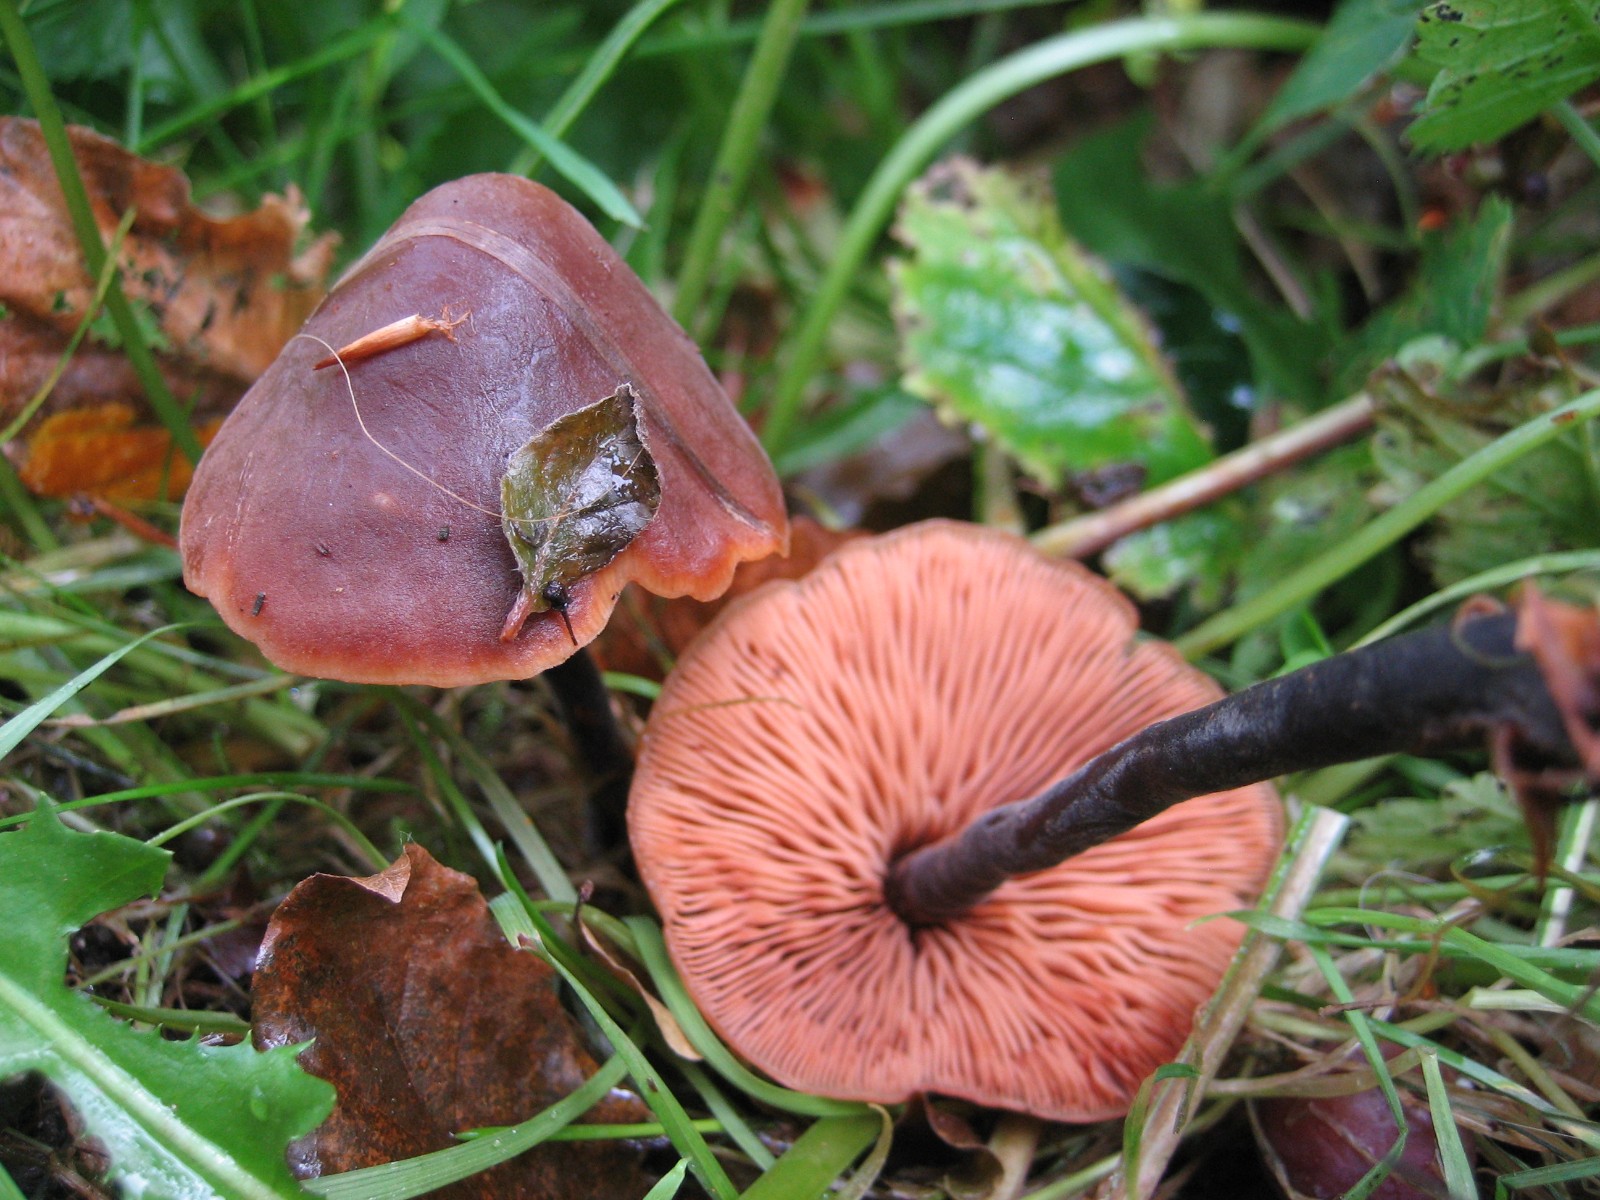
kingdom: Fungi
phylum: Basidiomycota
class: Agaricomycetes
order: Agaricales
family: Macrocystidiaceae
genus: Macrocystidia
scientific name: Macrocystidia cucumis
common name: agurkehat
